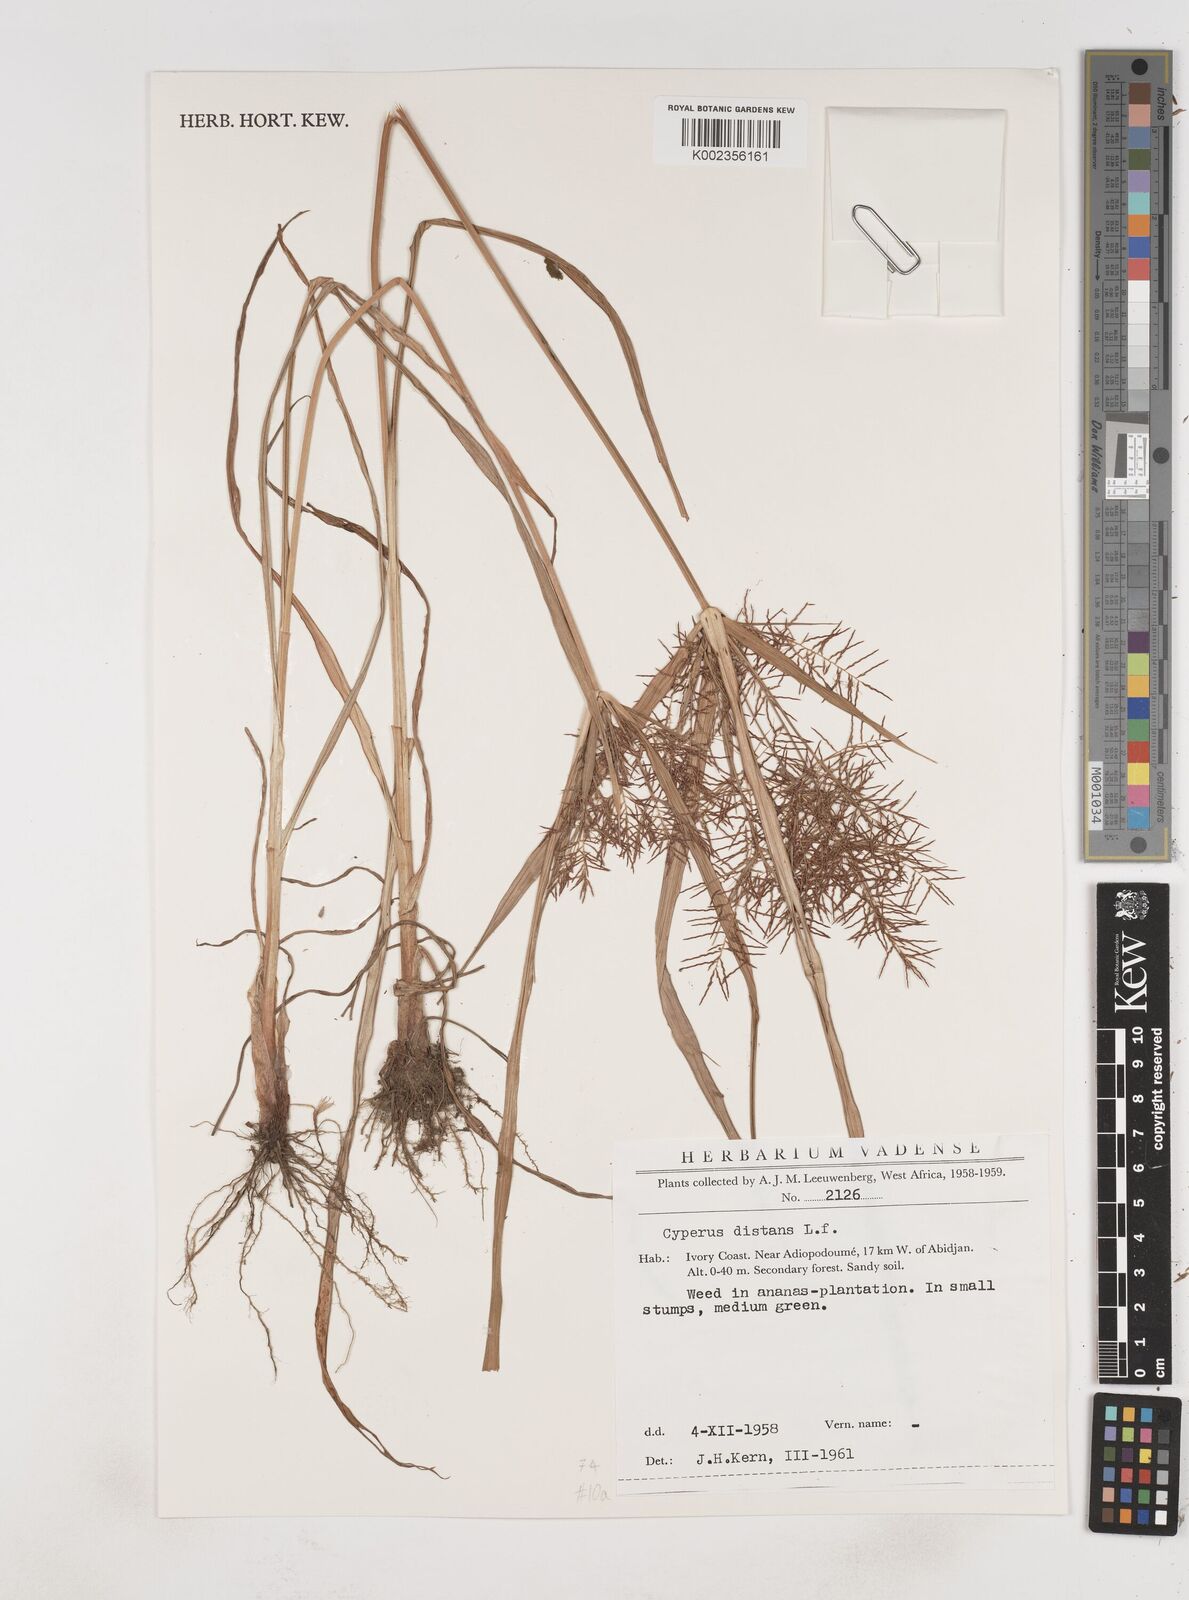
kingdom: Plantae
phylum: Tracheophyta
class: Liliopsida
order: Poales
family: Cyperaceae
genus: Cyperus
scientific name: Cyperus distans
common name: Slender cyperus
